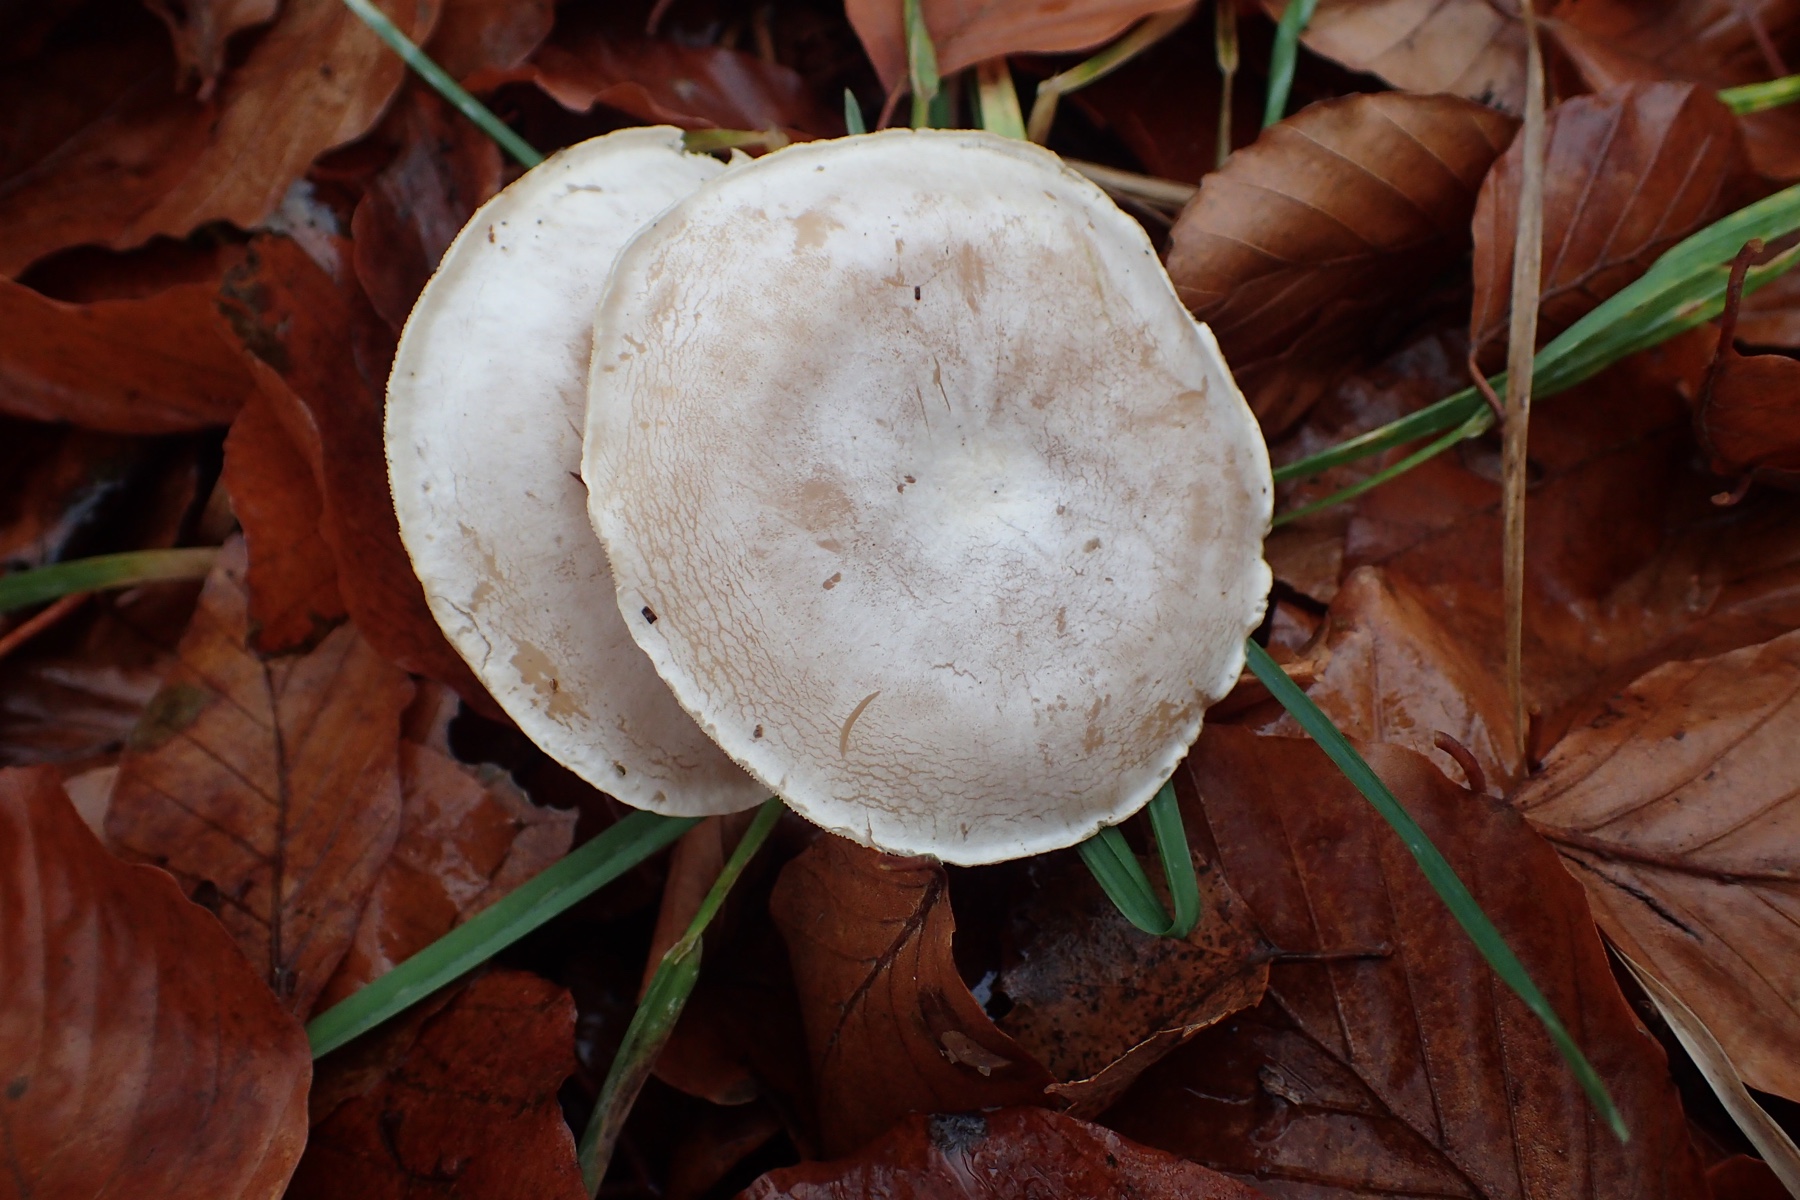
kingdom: Fungi
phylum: Basidiomycota
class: Agaricomycetes
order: Agaricales
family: Tricholomataceae
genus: Clitocybe
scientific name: Clitocybe phyllophila
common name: løv-tragthat
